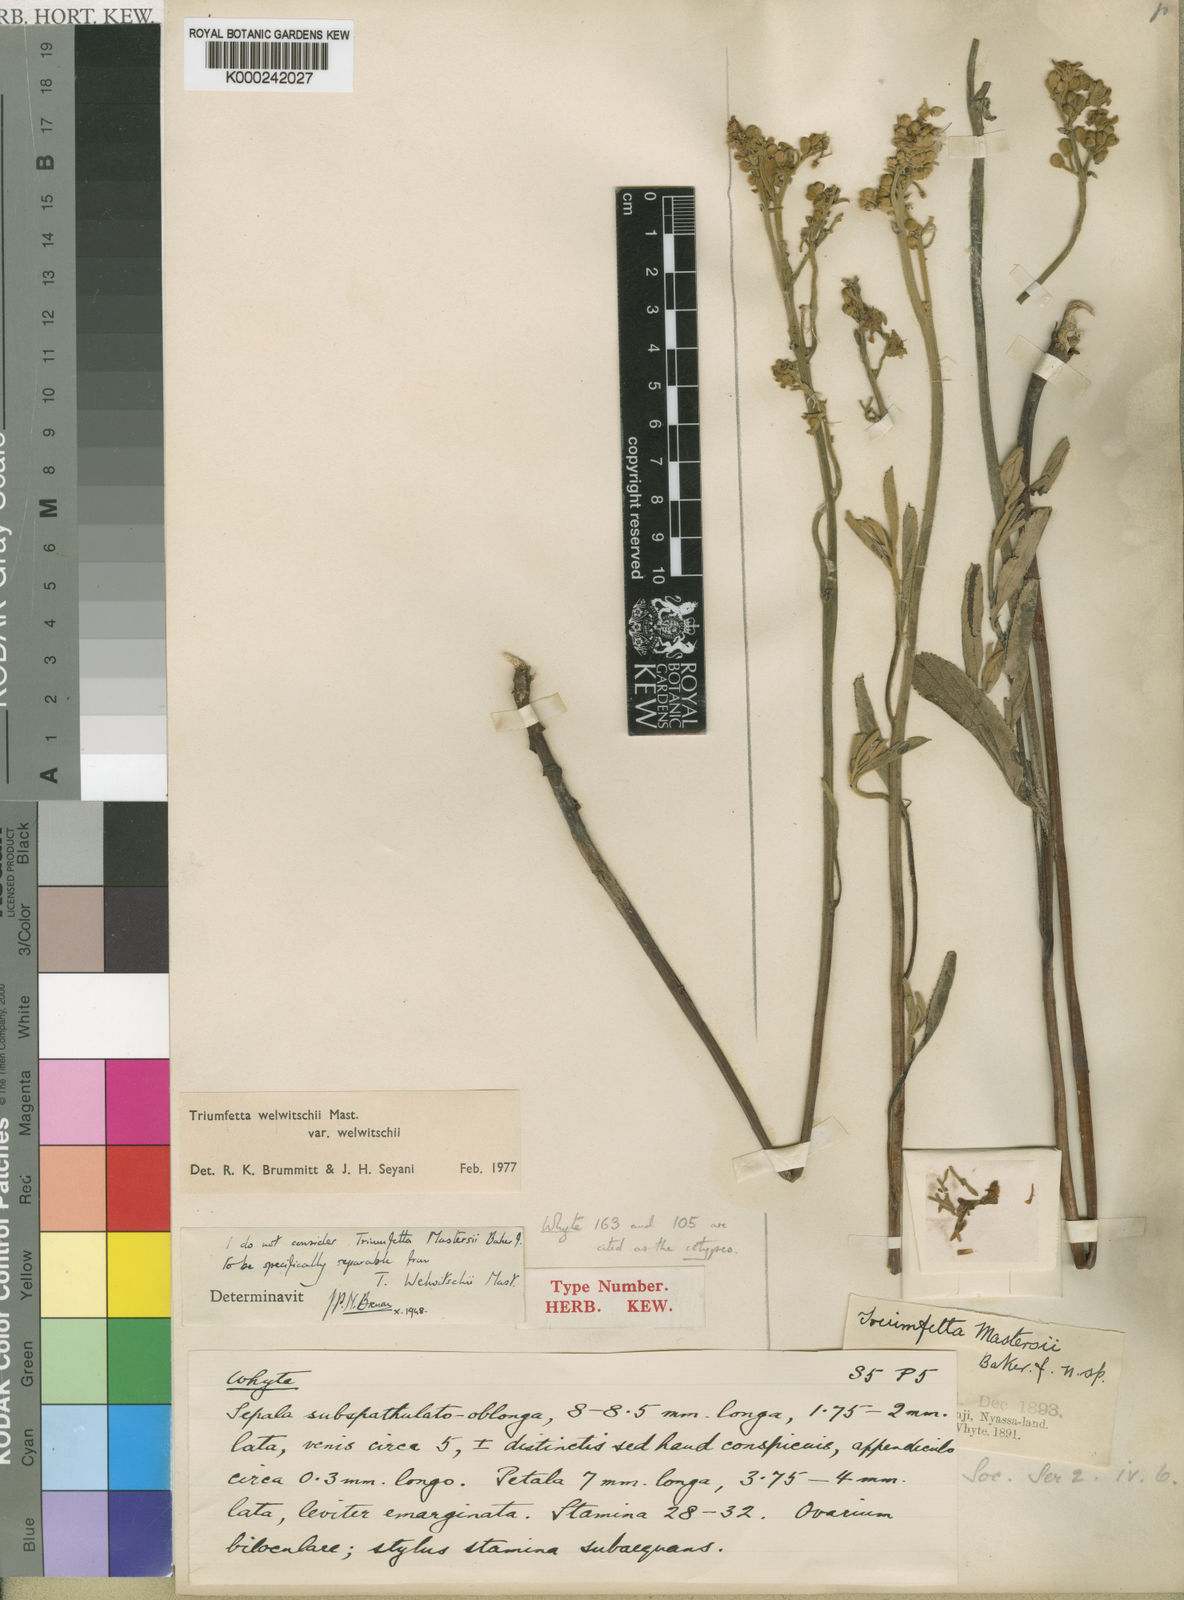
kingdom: Plantae
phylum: Tracheophyta
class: Magnoliopsida
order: Malvales
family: Malvaceae
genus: Triumfetta
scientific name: Triumfetta welwitschii
